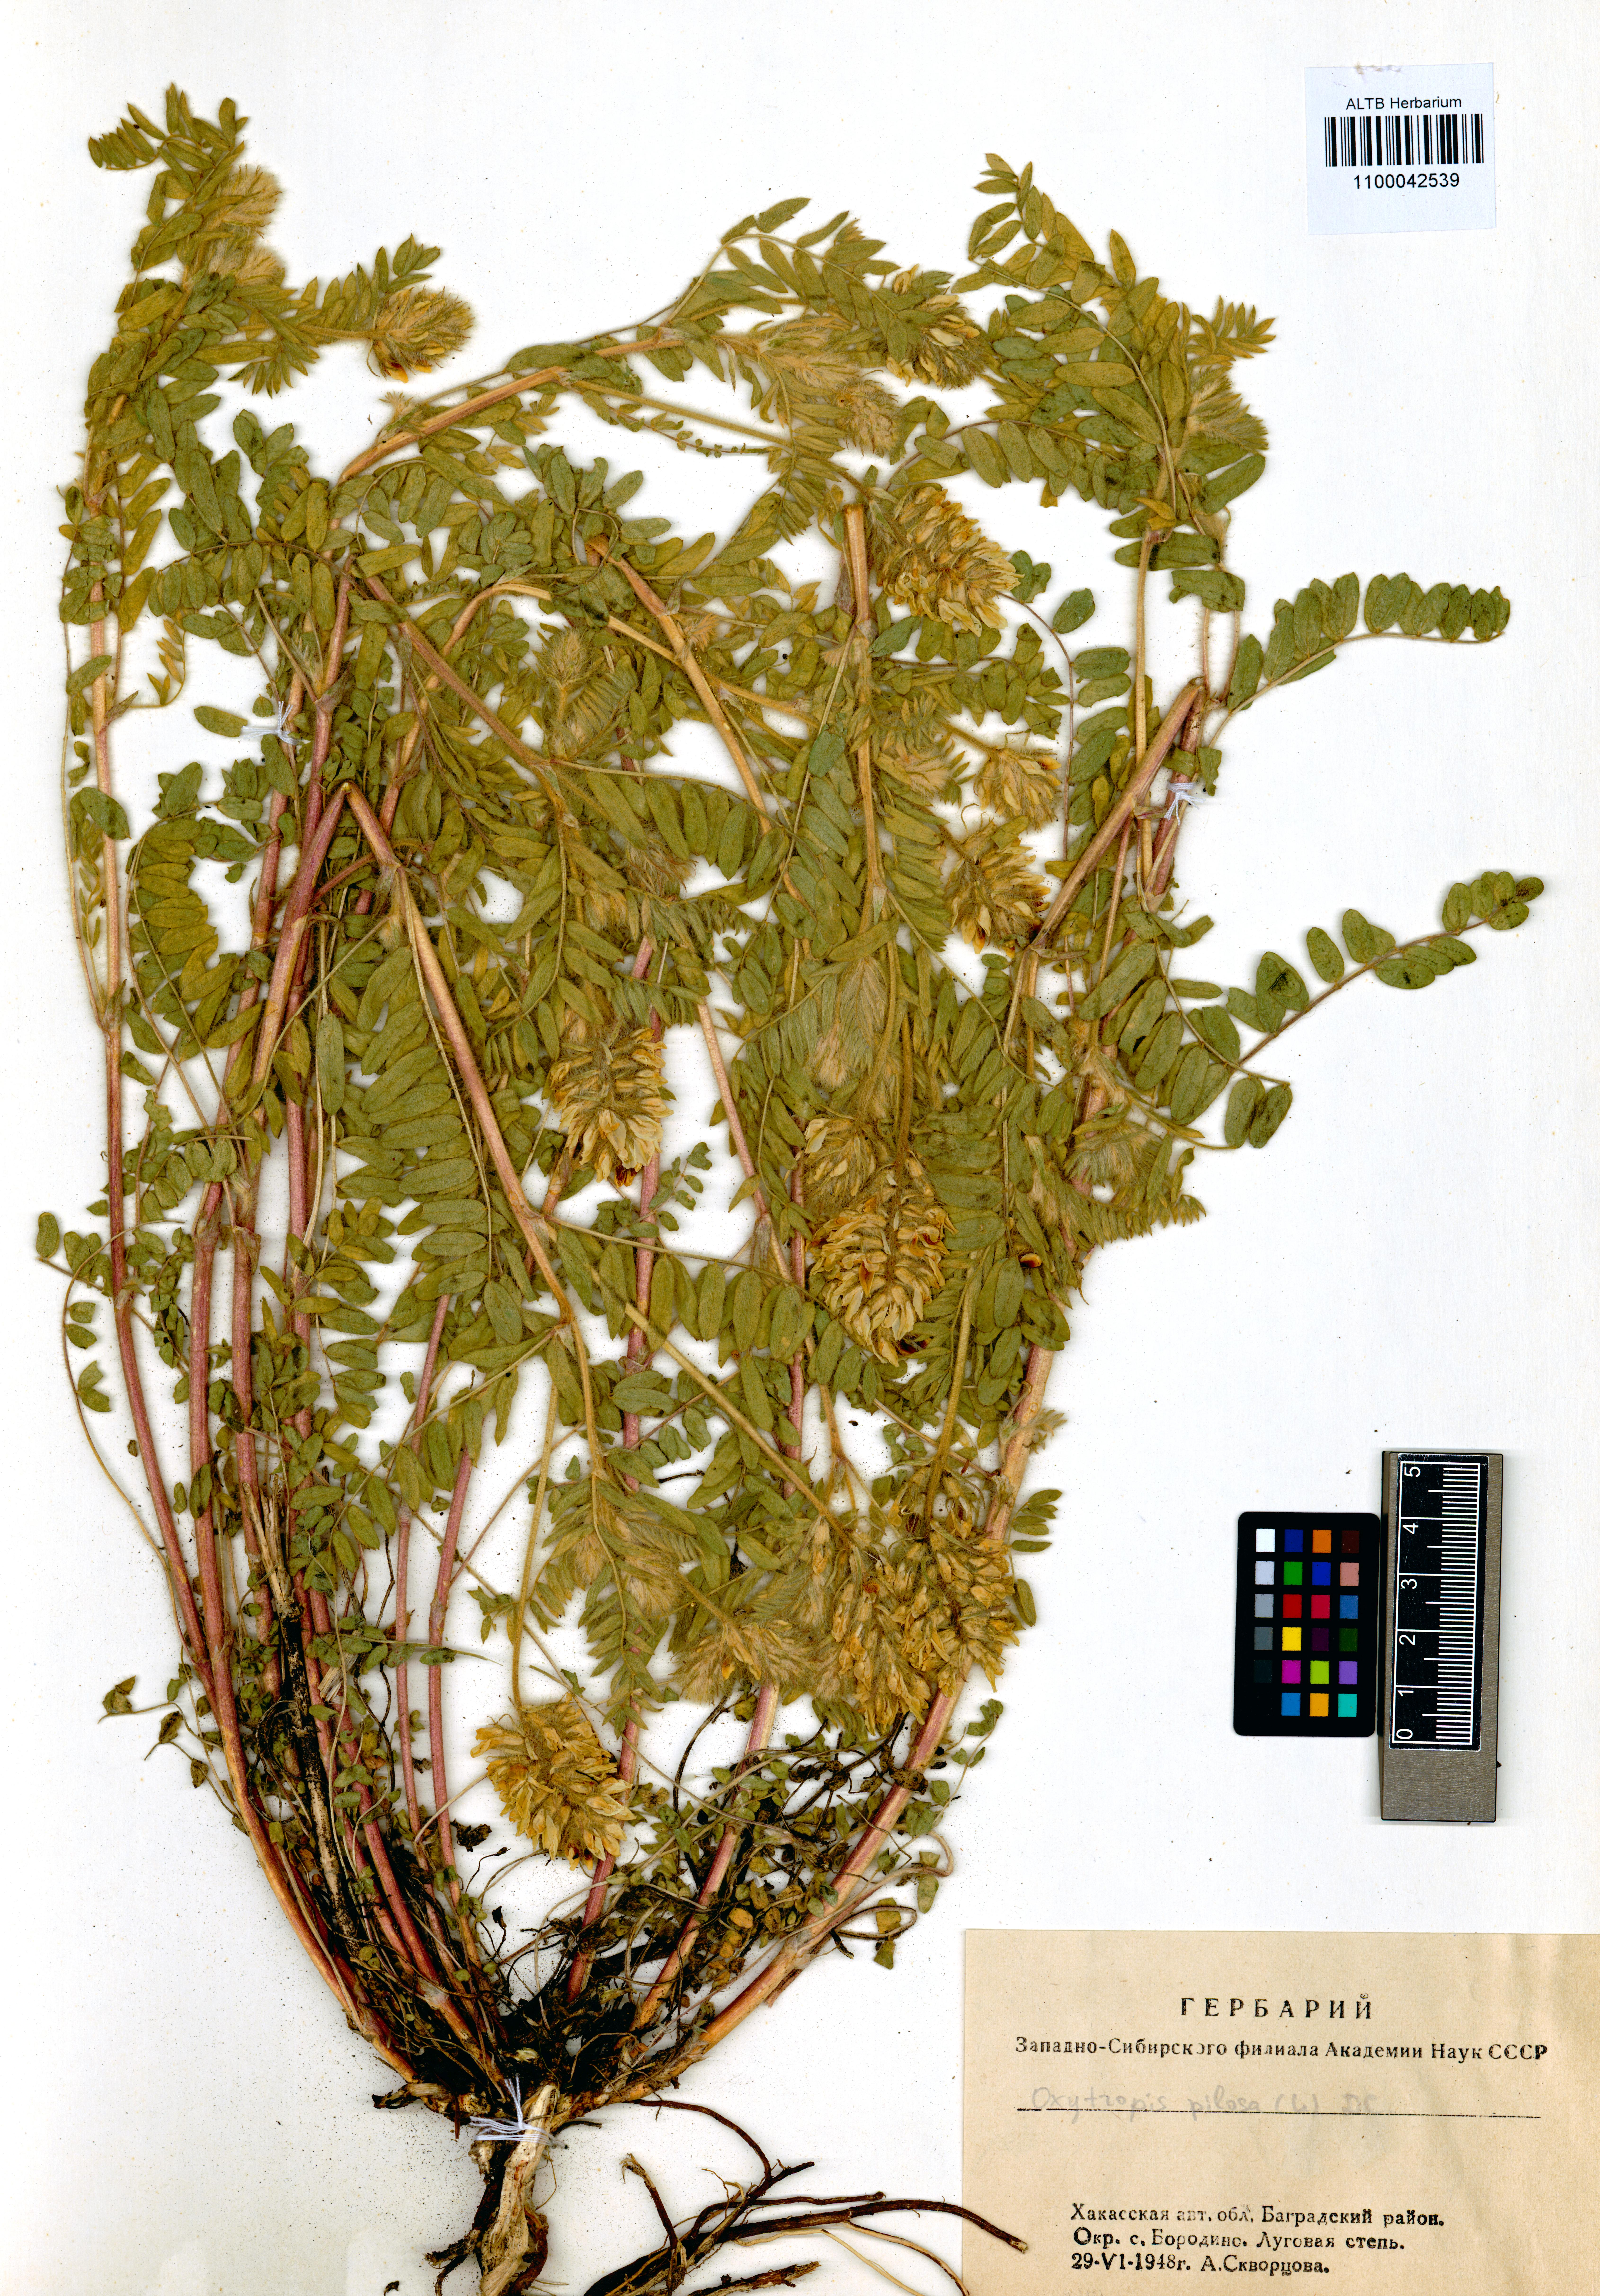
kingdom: Plantae
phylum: Tracheophyta
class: Magnoliopsida
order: Fabales
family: Fabaceae
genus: Oxytropis
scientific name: Oxytropis pilosa
